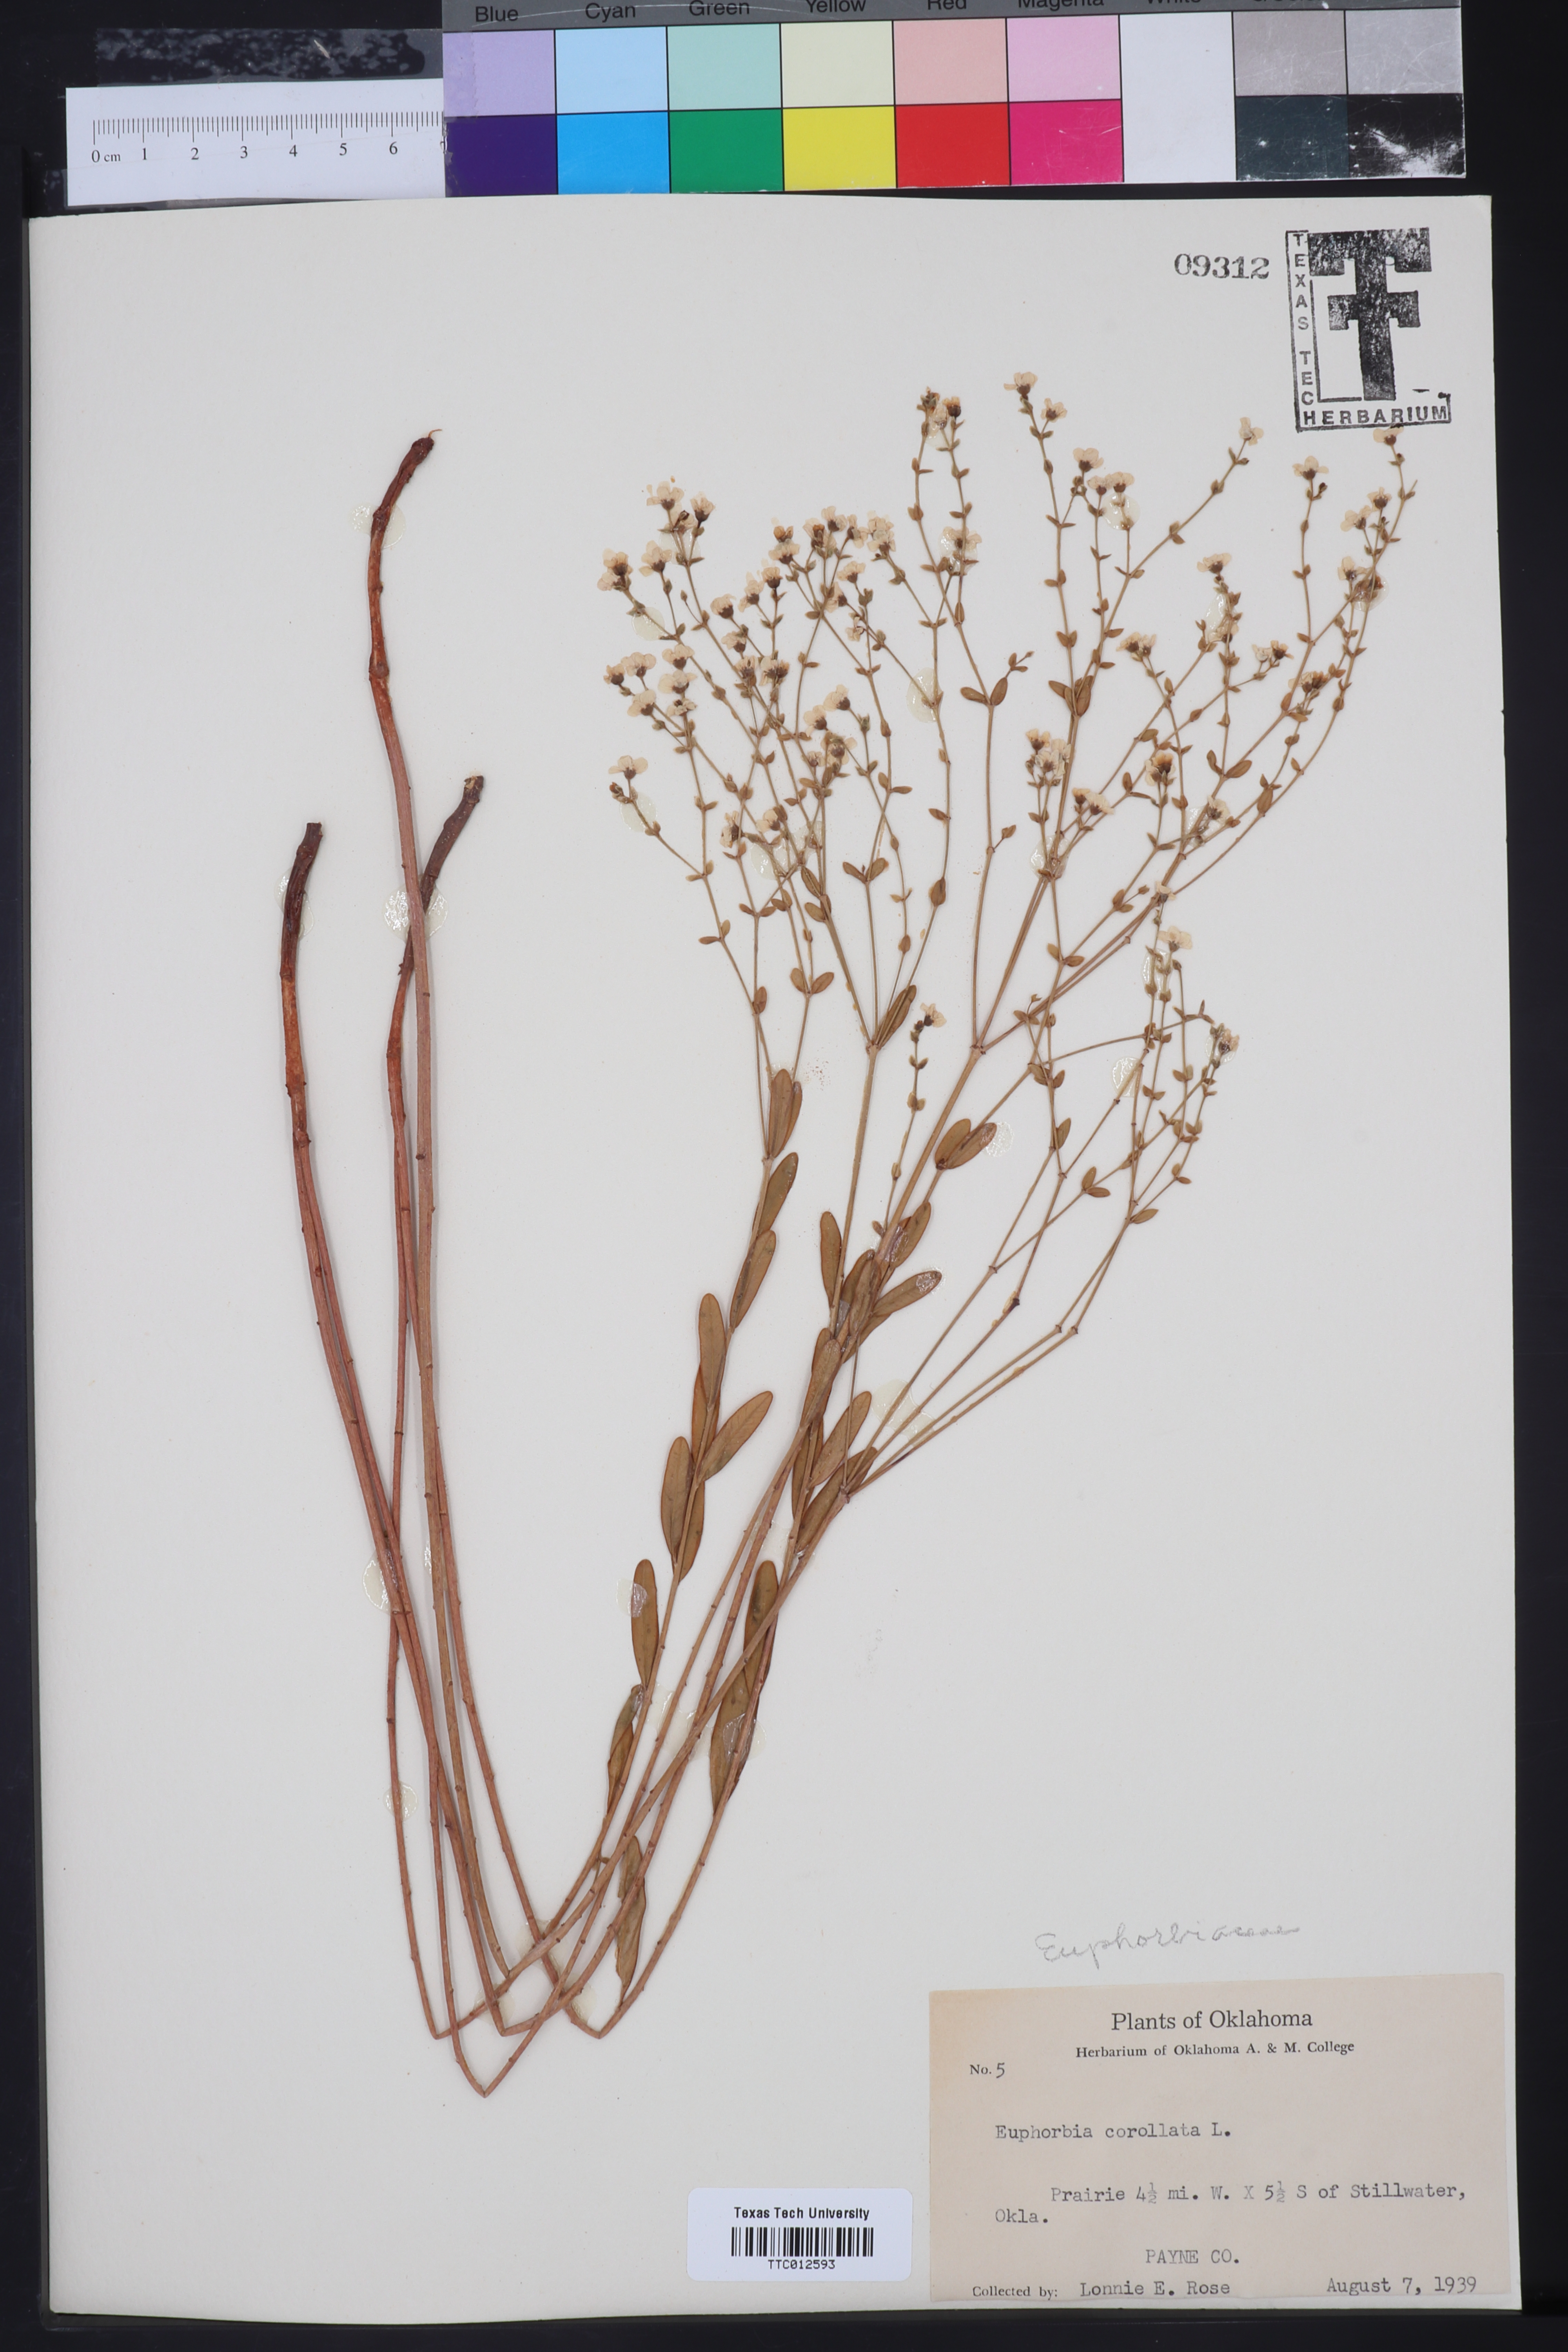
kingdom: Plantae
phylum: Tracheophyta
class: Magnoliopsida
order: Malpighiales
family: Euphorbiaceae
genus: Euphorbia
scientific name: Euphorbia corollata
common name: Flowering spurge
